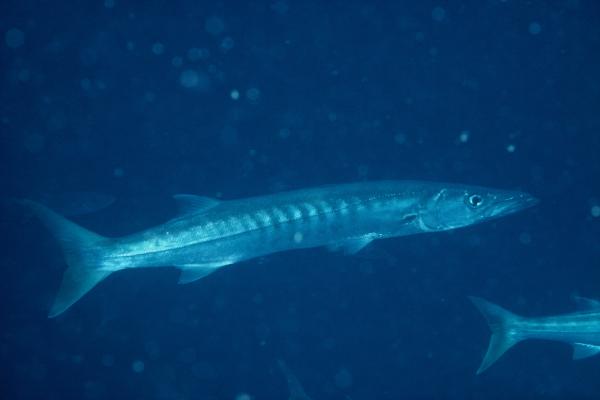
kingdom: Animalia
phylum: Chordata
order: Perciformes
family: Sphyraenidae
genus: Sphyraena
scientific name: Sphyraena jello
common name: Pickhandle barracuda
